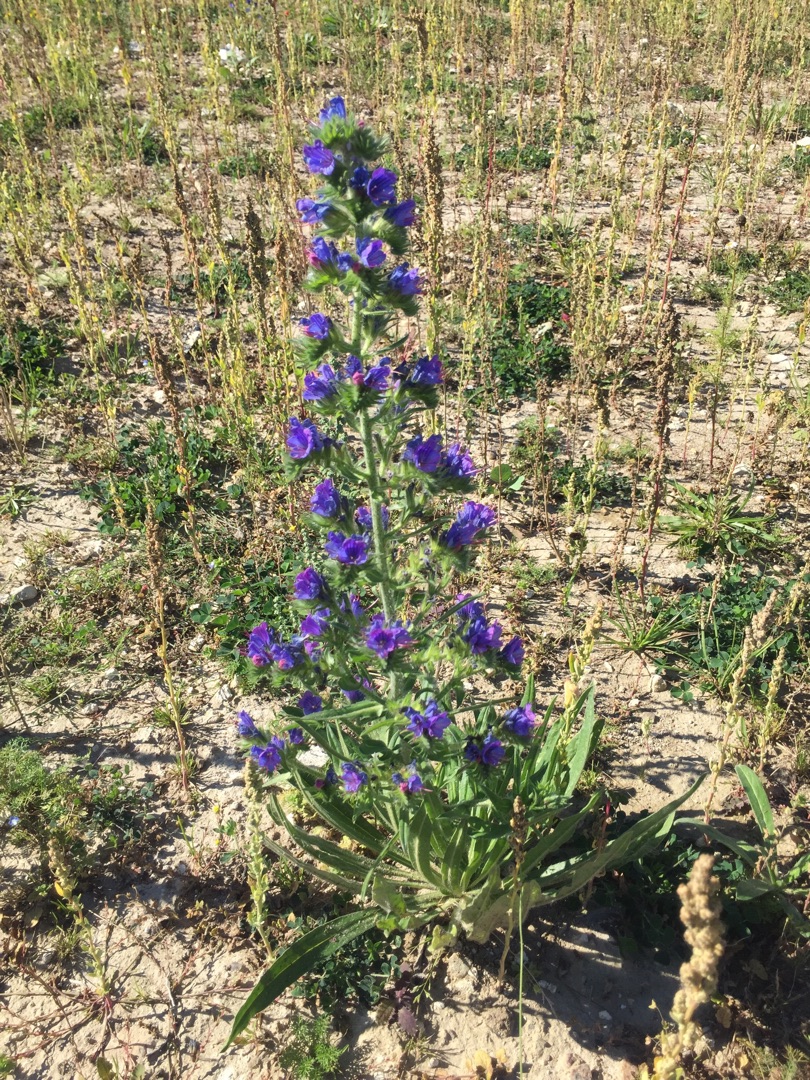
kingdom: Plantae
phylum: Tracheophyta
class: Magnoliopsida
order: Boraginales
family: Boraginaceae
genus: Echium
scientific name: Echium vulgare
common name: Slangehoved
